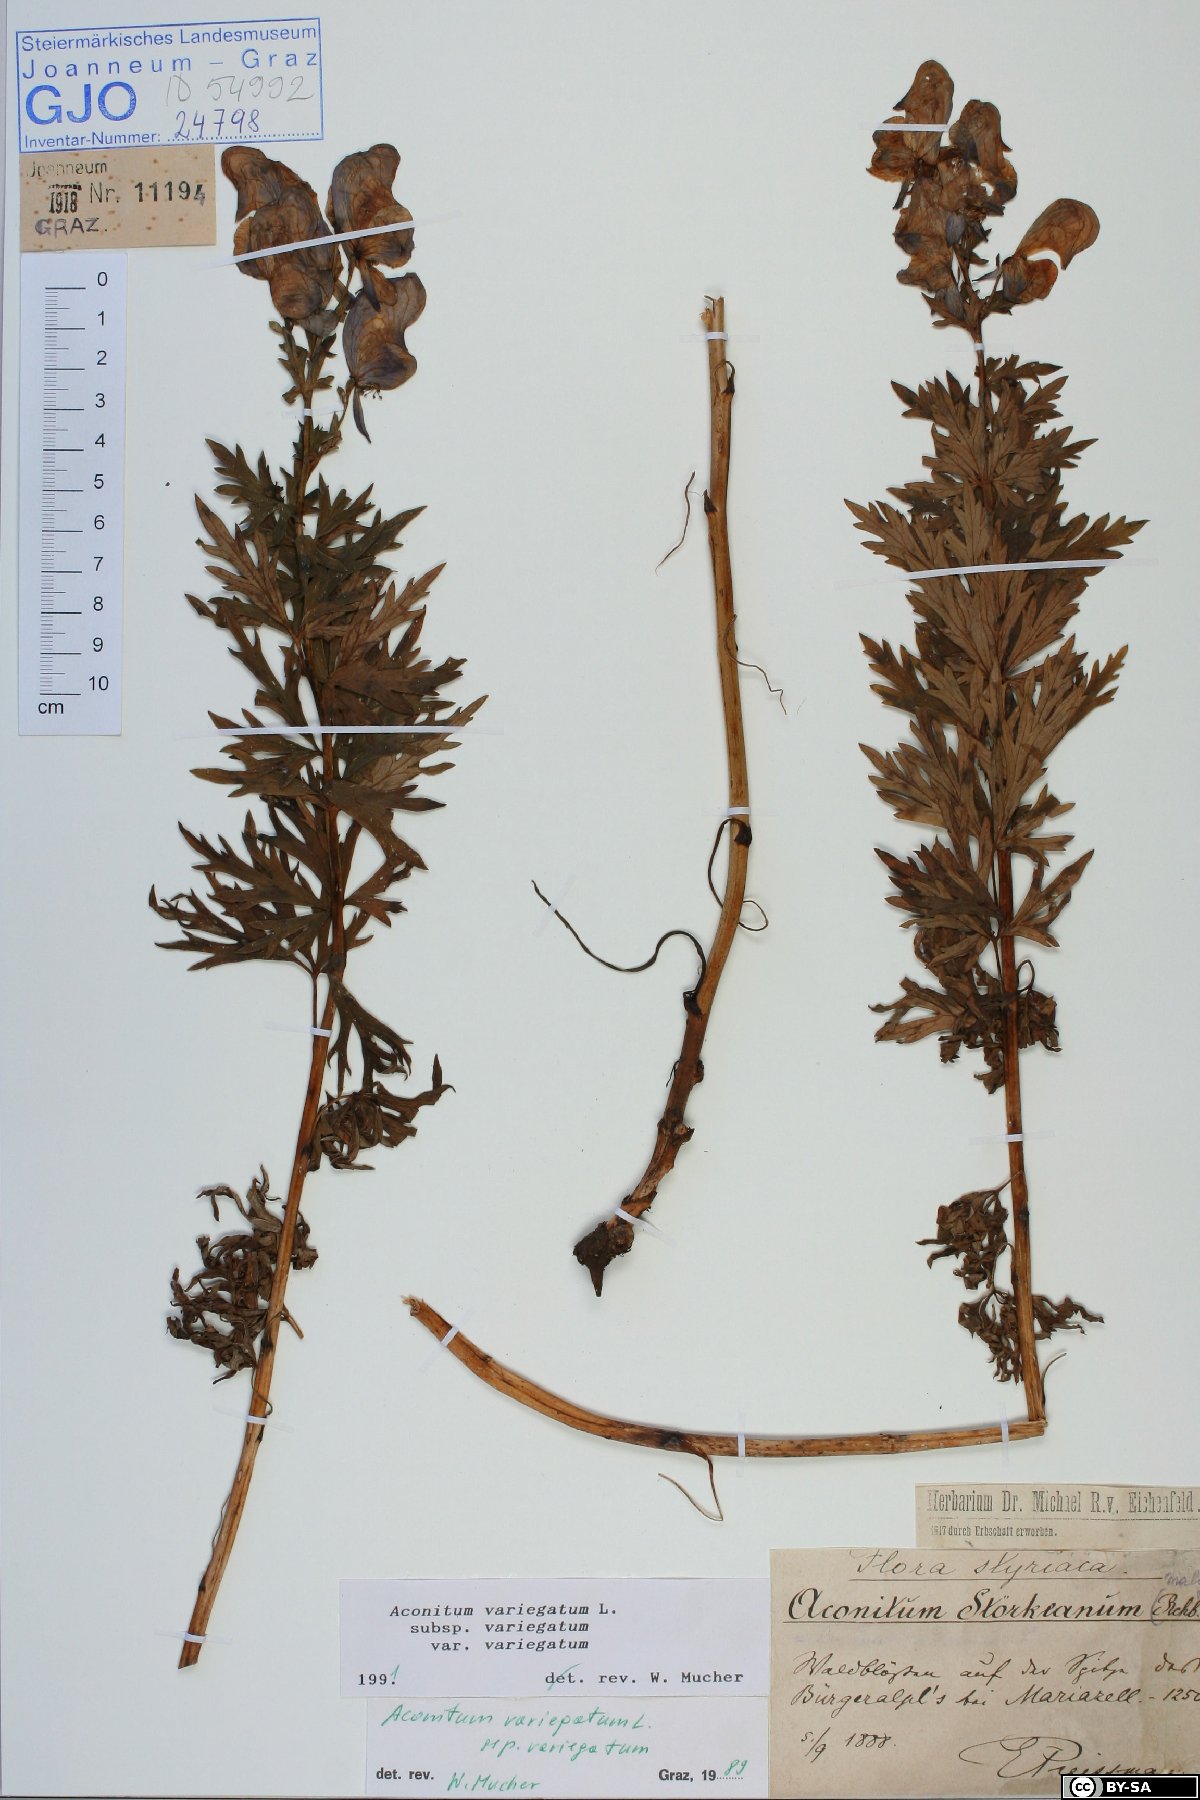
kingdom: Plantae
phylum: Tracheophyta
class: Magnoliopsida
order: Ranunculales
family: Ranunculaceae
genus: Aconitum
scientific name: Aconitum variegatum
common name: Manchurian monkshood
